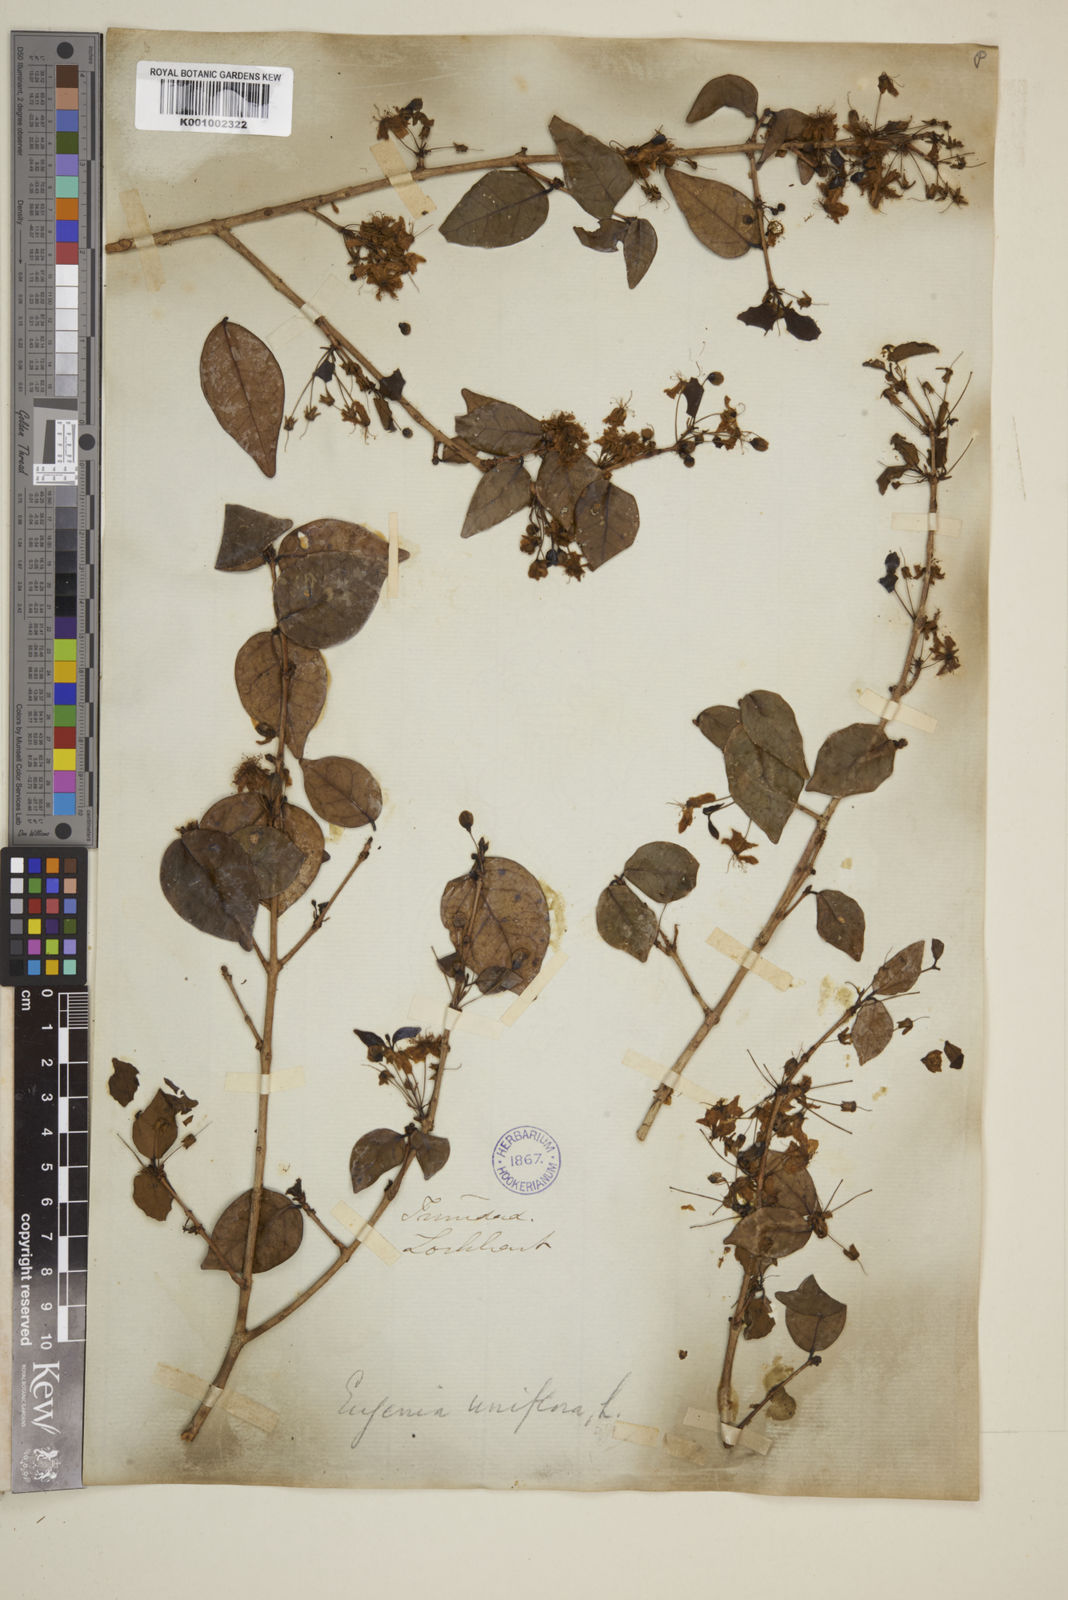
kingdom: Plantae
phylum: Tracheophyta
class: Magnoliopsida
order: Myrtales
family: Myrtaceae
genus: Eugenia
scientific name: Eugenia uniflora
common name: Surinam cherry
